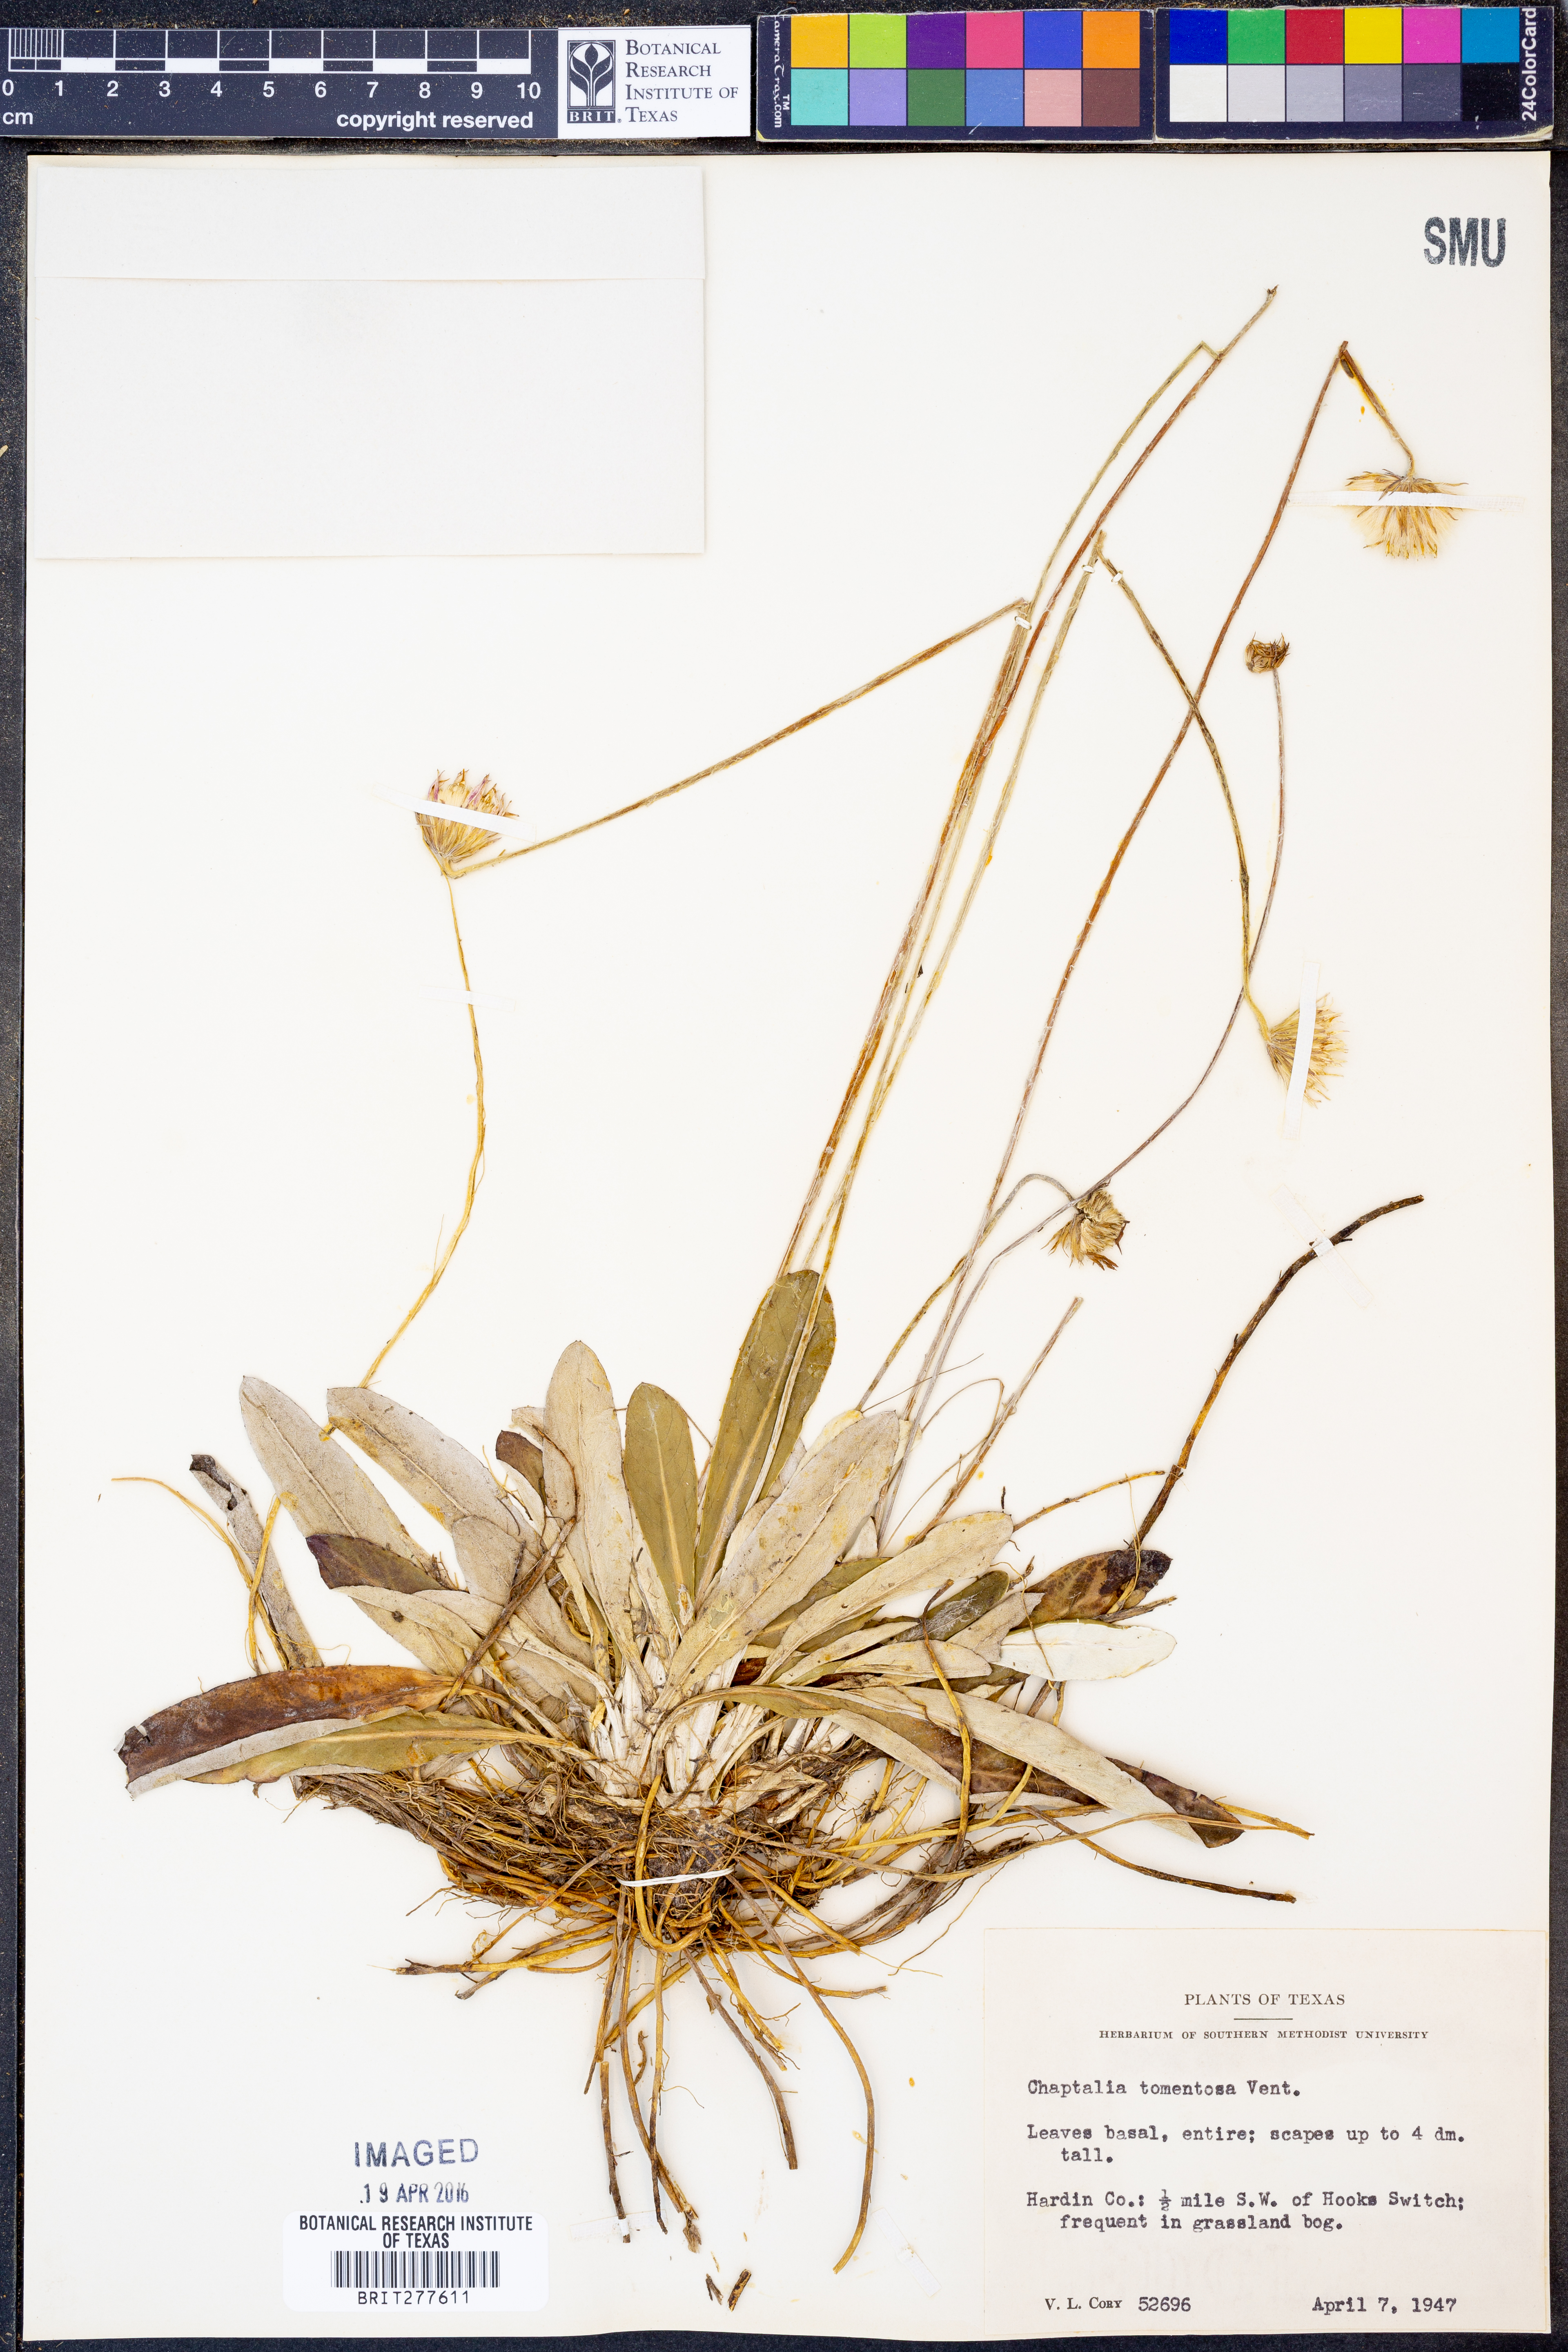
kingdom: Plantae
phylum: Tracheophyta
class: Magnoliopsida
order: Asterales
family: Asteraceae
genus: Chaptalia
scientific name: Chaptalia tomentosa
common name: Woolly sunbonnet
